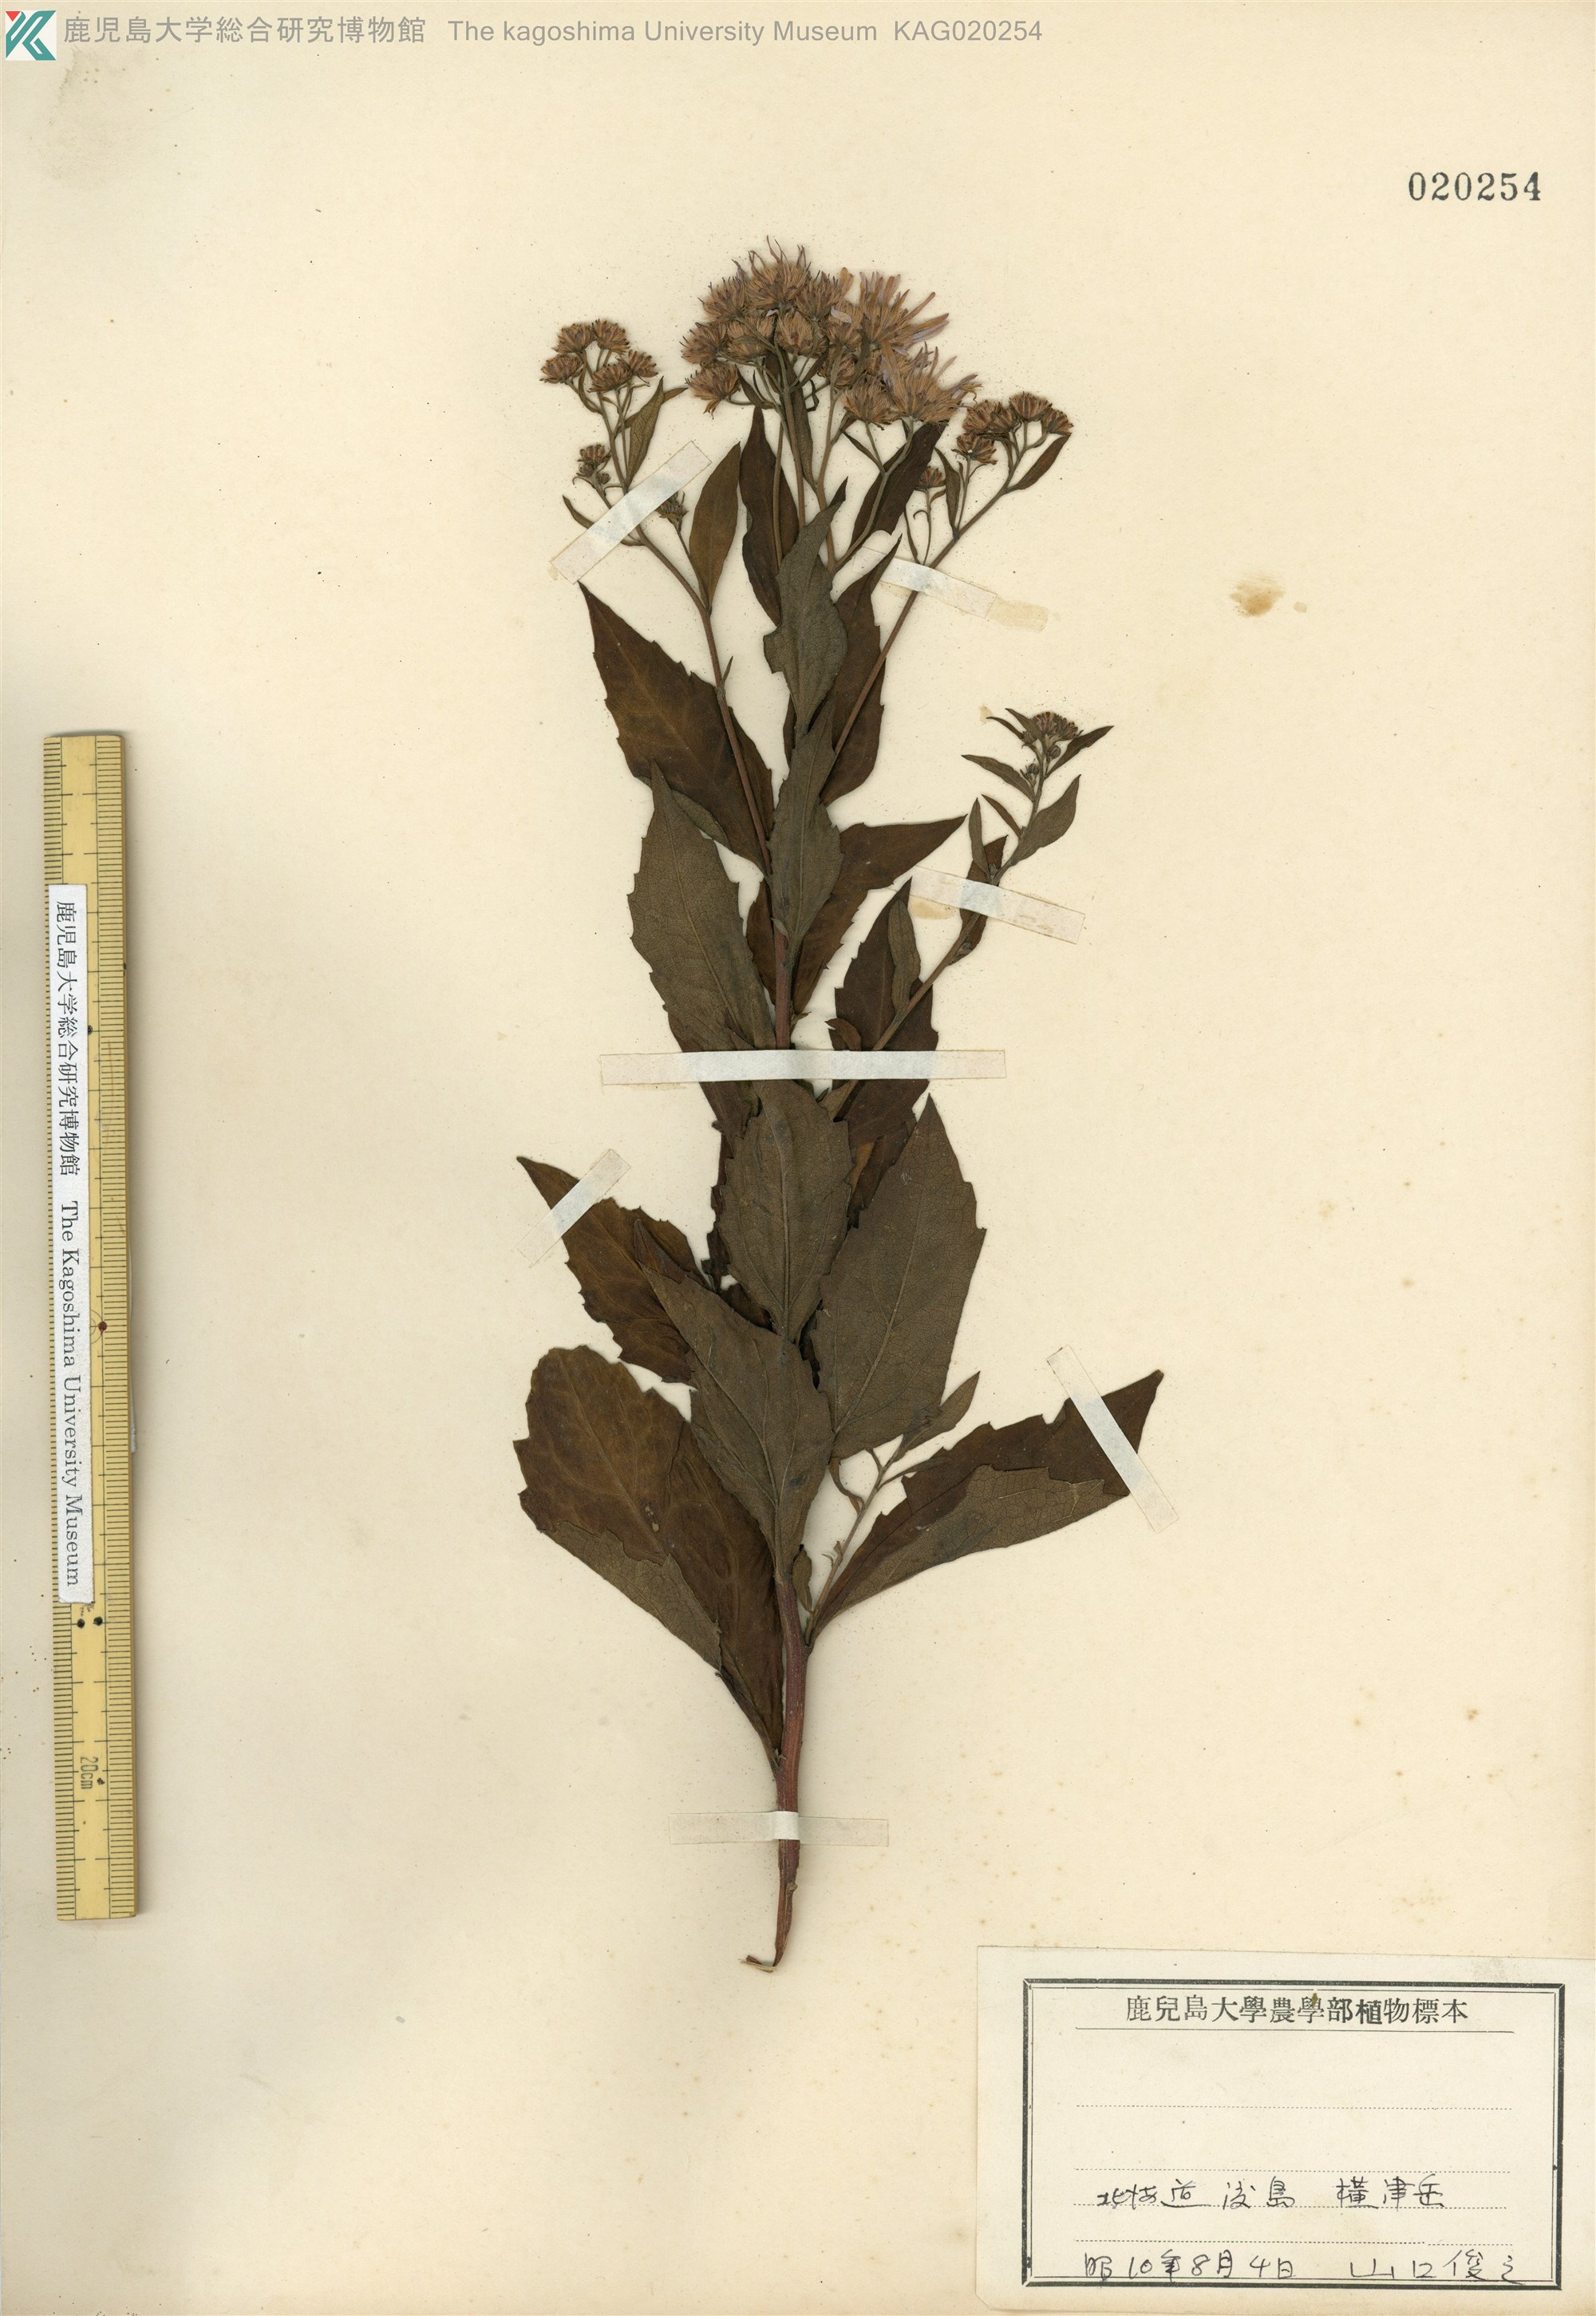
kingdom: Plantae
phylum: Tracheophyta
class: Magnoliopsida
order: Asterales
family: Asteraceae
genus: Aster
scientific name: Aster microcephalus
